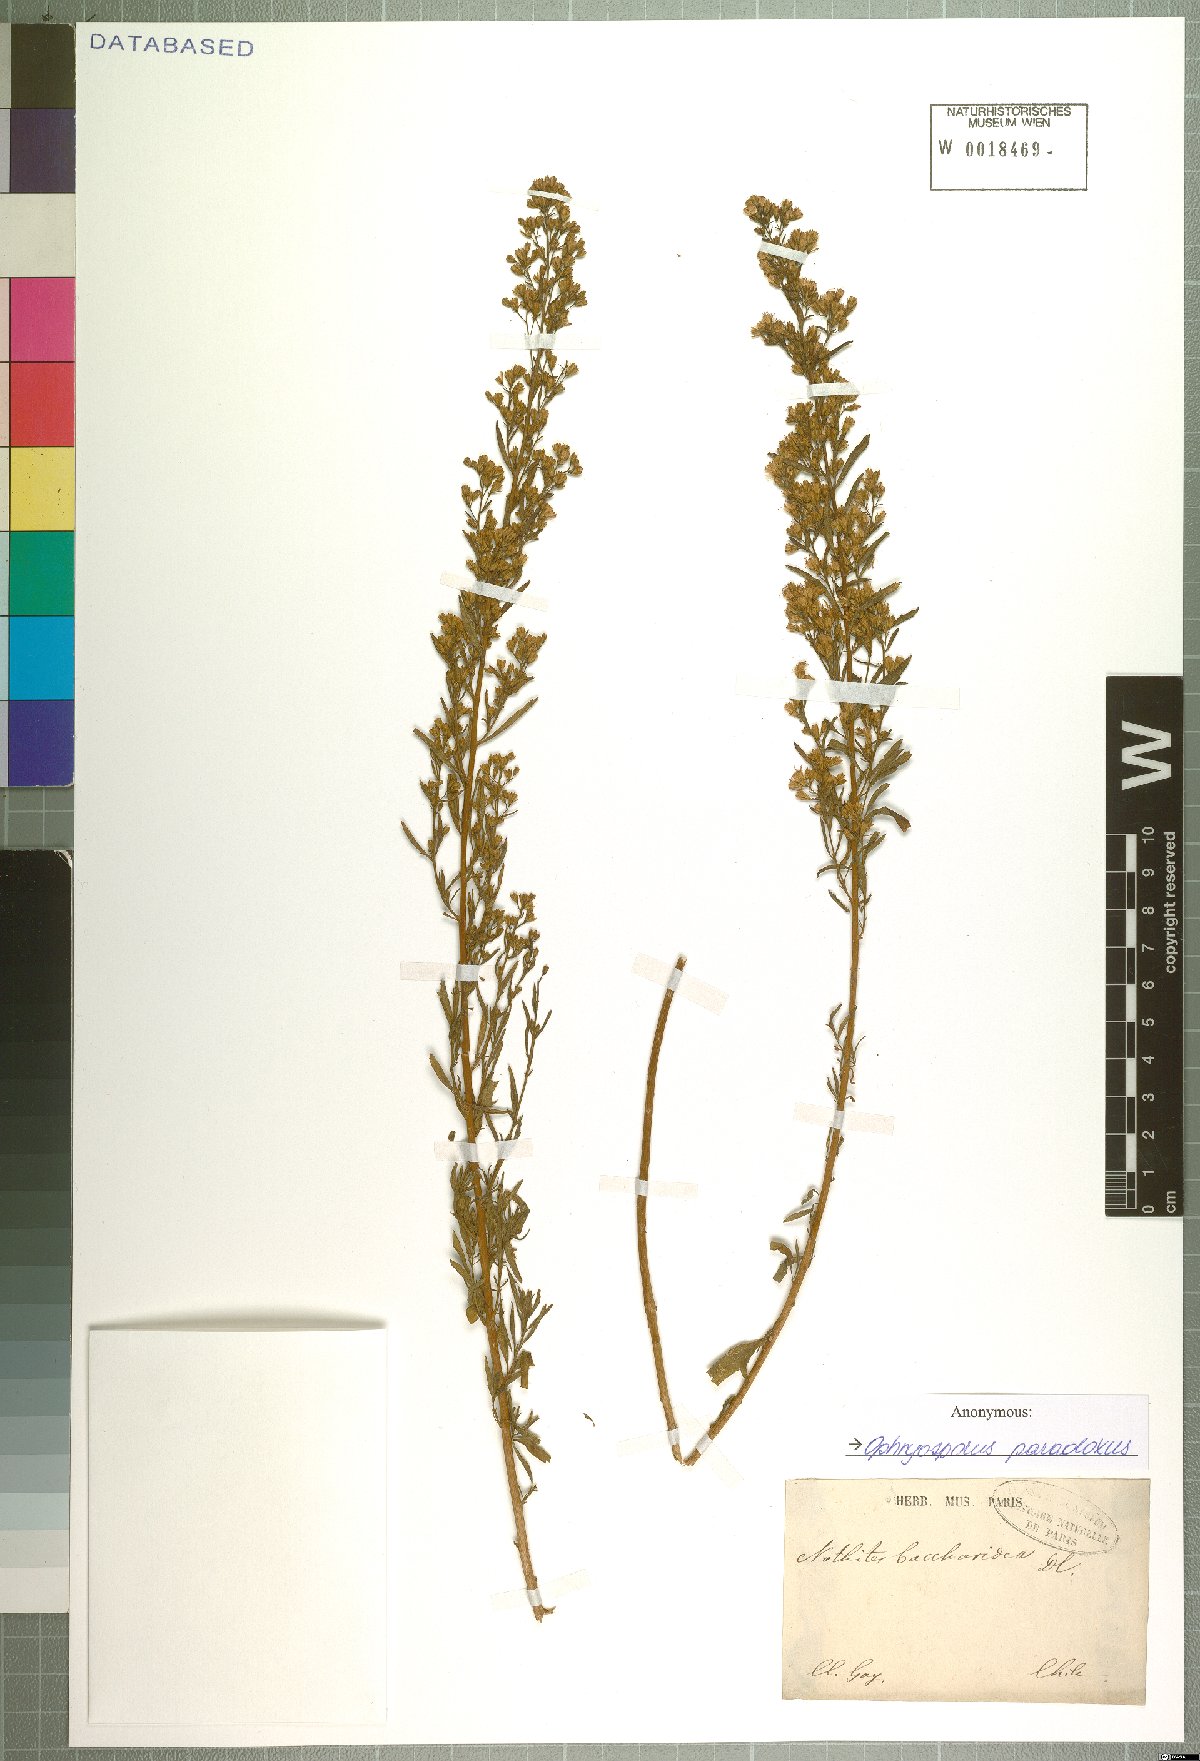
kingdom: Plantae
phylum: Tracheophyta
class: Magnoliopsida
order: Asterales
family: Asteraceae
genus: Ophryosporus
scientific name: Ophryosporus paradoxus
